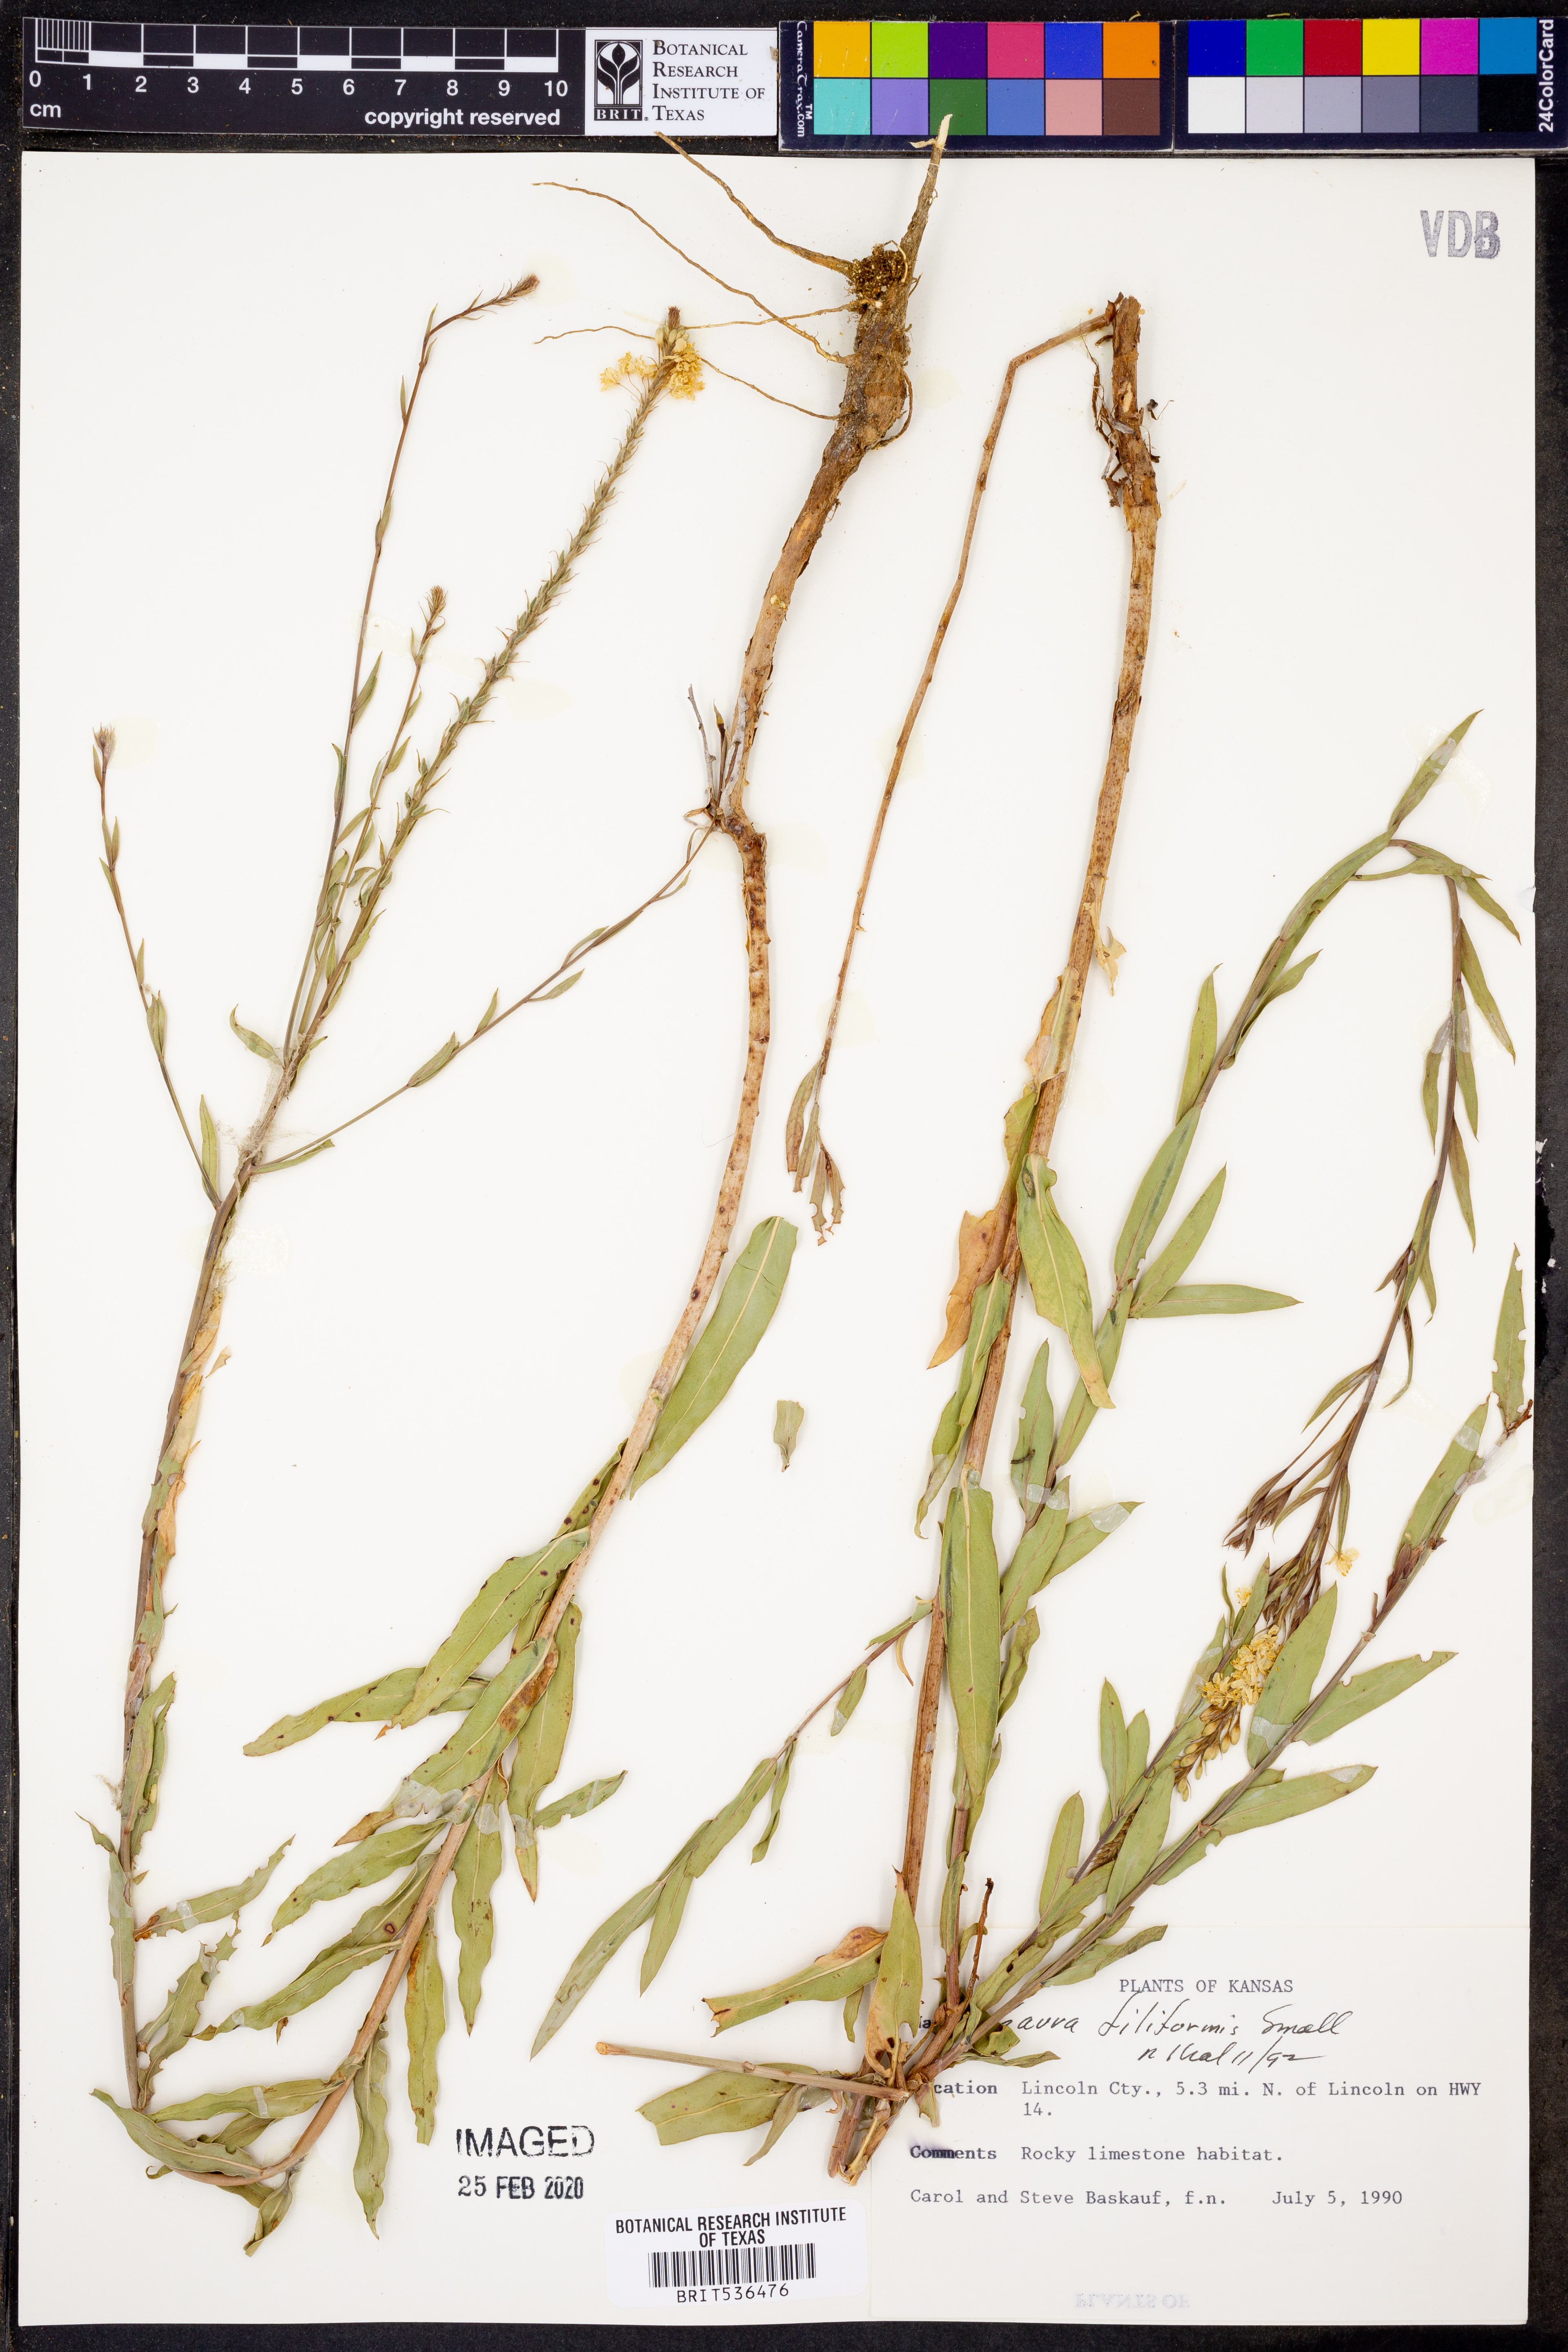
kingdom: Plantae
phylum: Tracheophyta
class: Magnoliopsida
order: Myrtales
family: Onagraceae
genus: Oenothera
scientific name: Oenothera filiformis
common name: Longflower beeblossom
